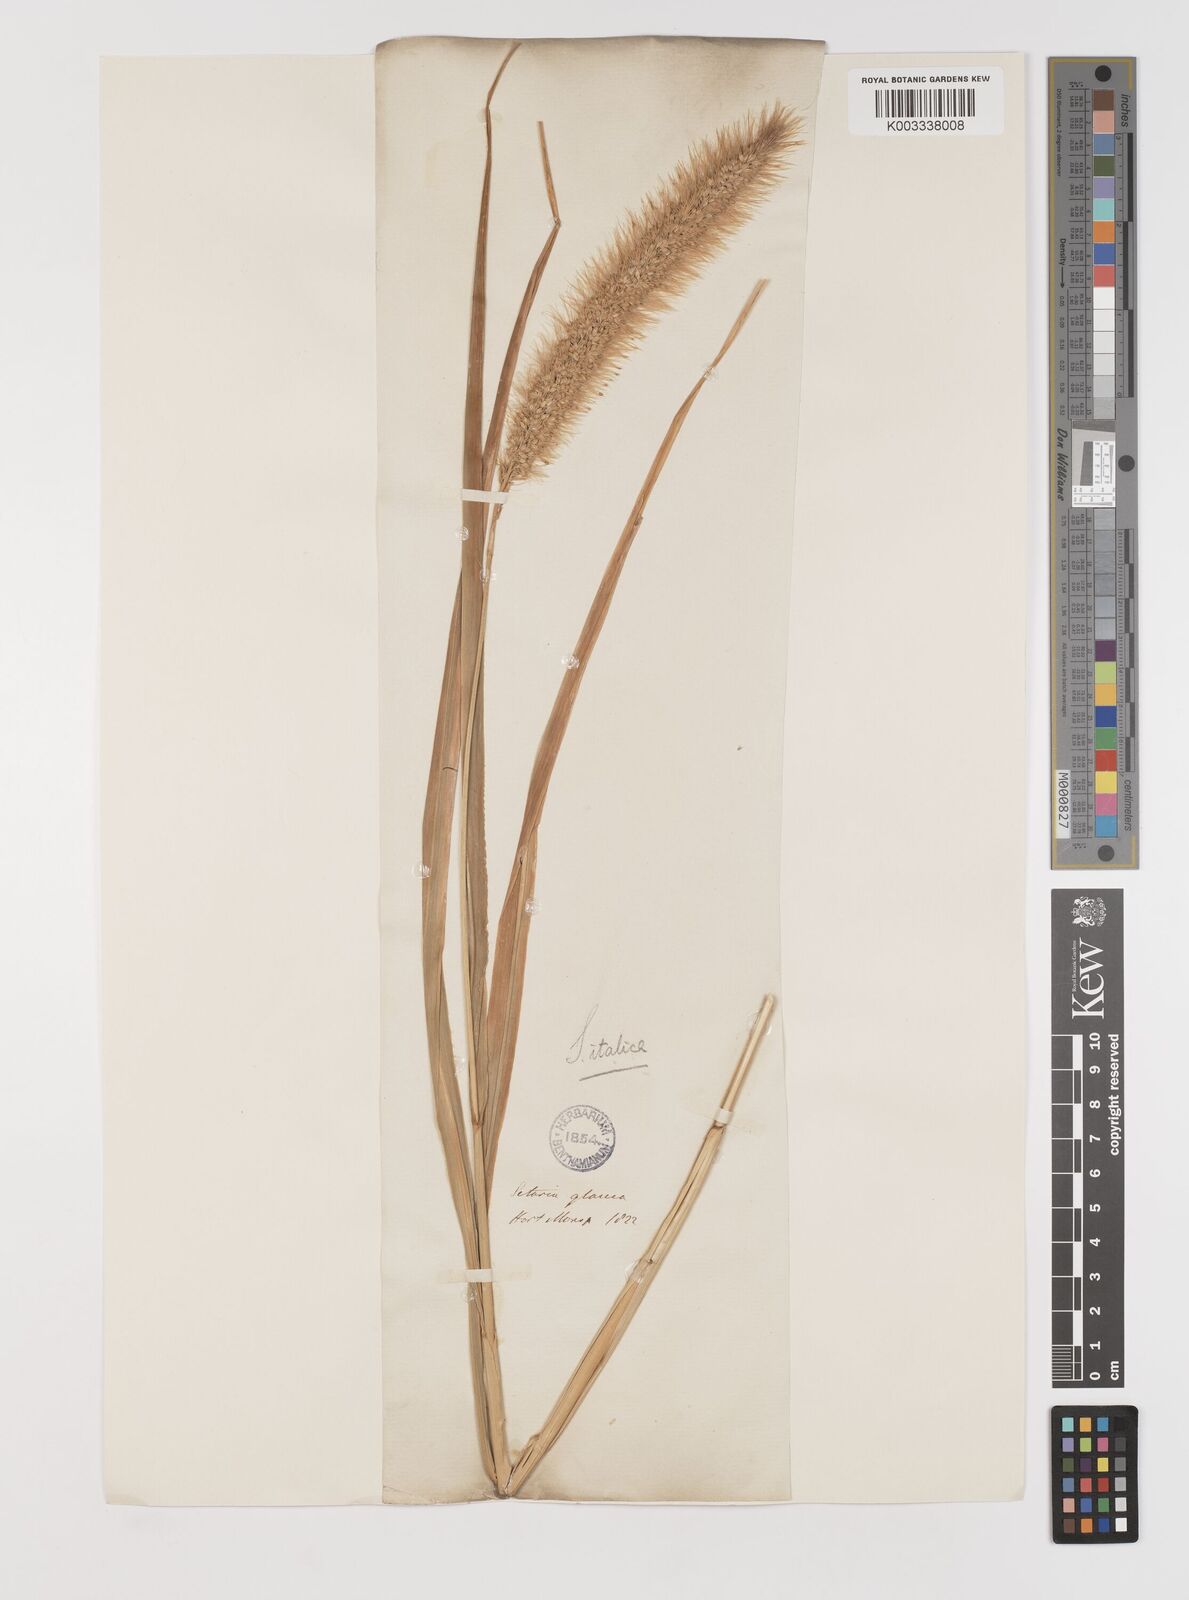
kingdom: Plantae
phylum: Tracheophyta
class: Liliopsida
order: Poales
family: Poaceae
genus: Setaria
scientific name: Setaria italica
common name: Foxtail bristle-grass
